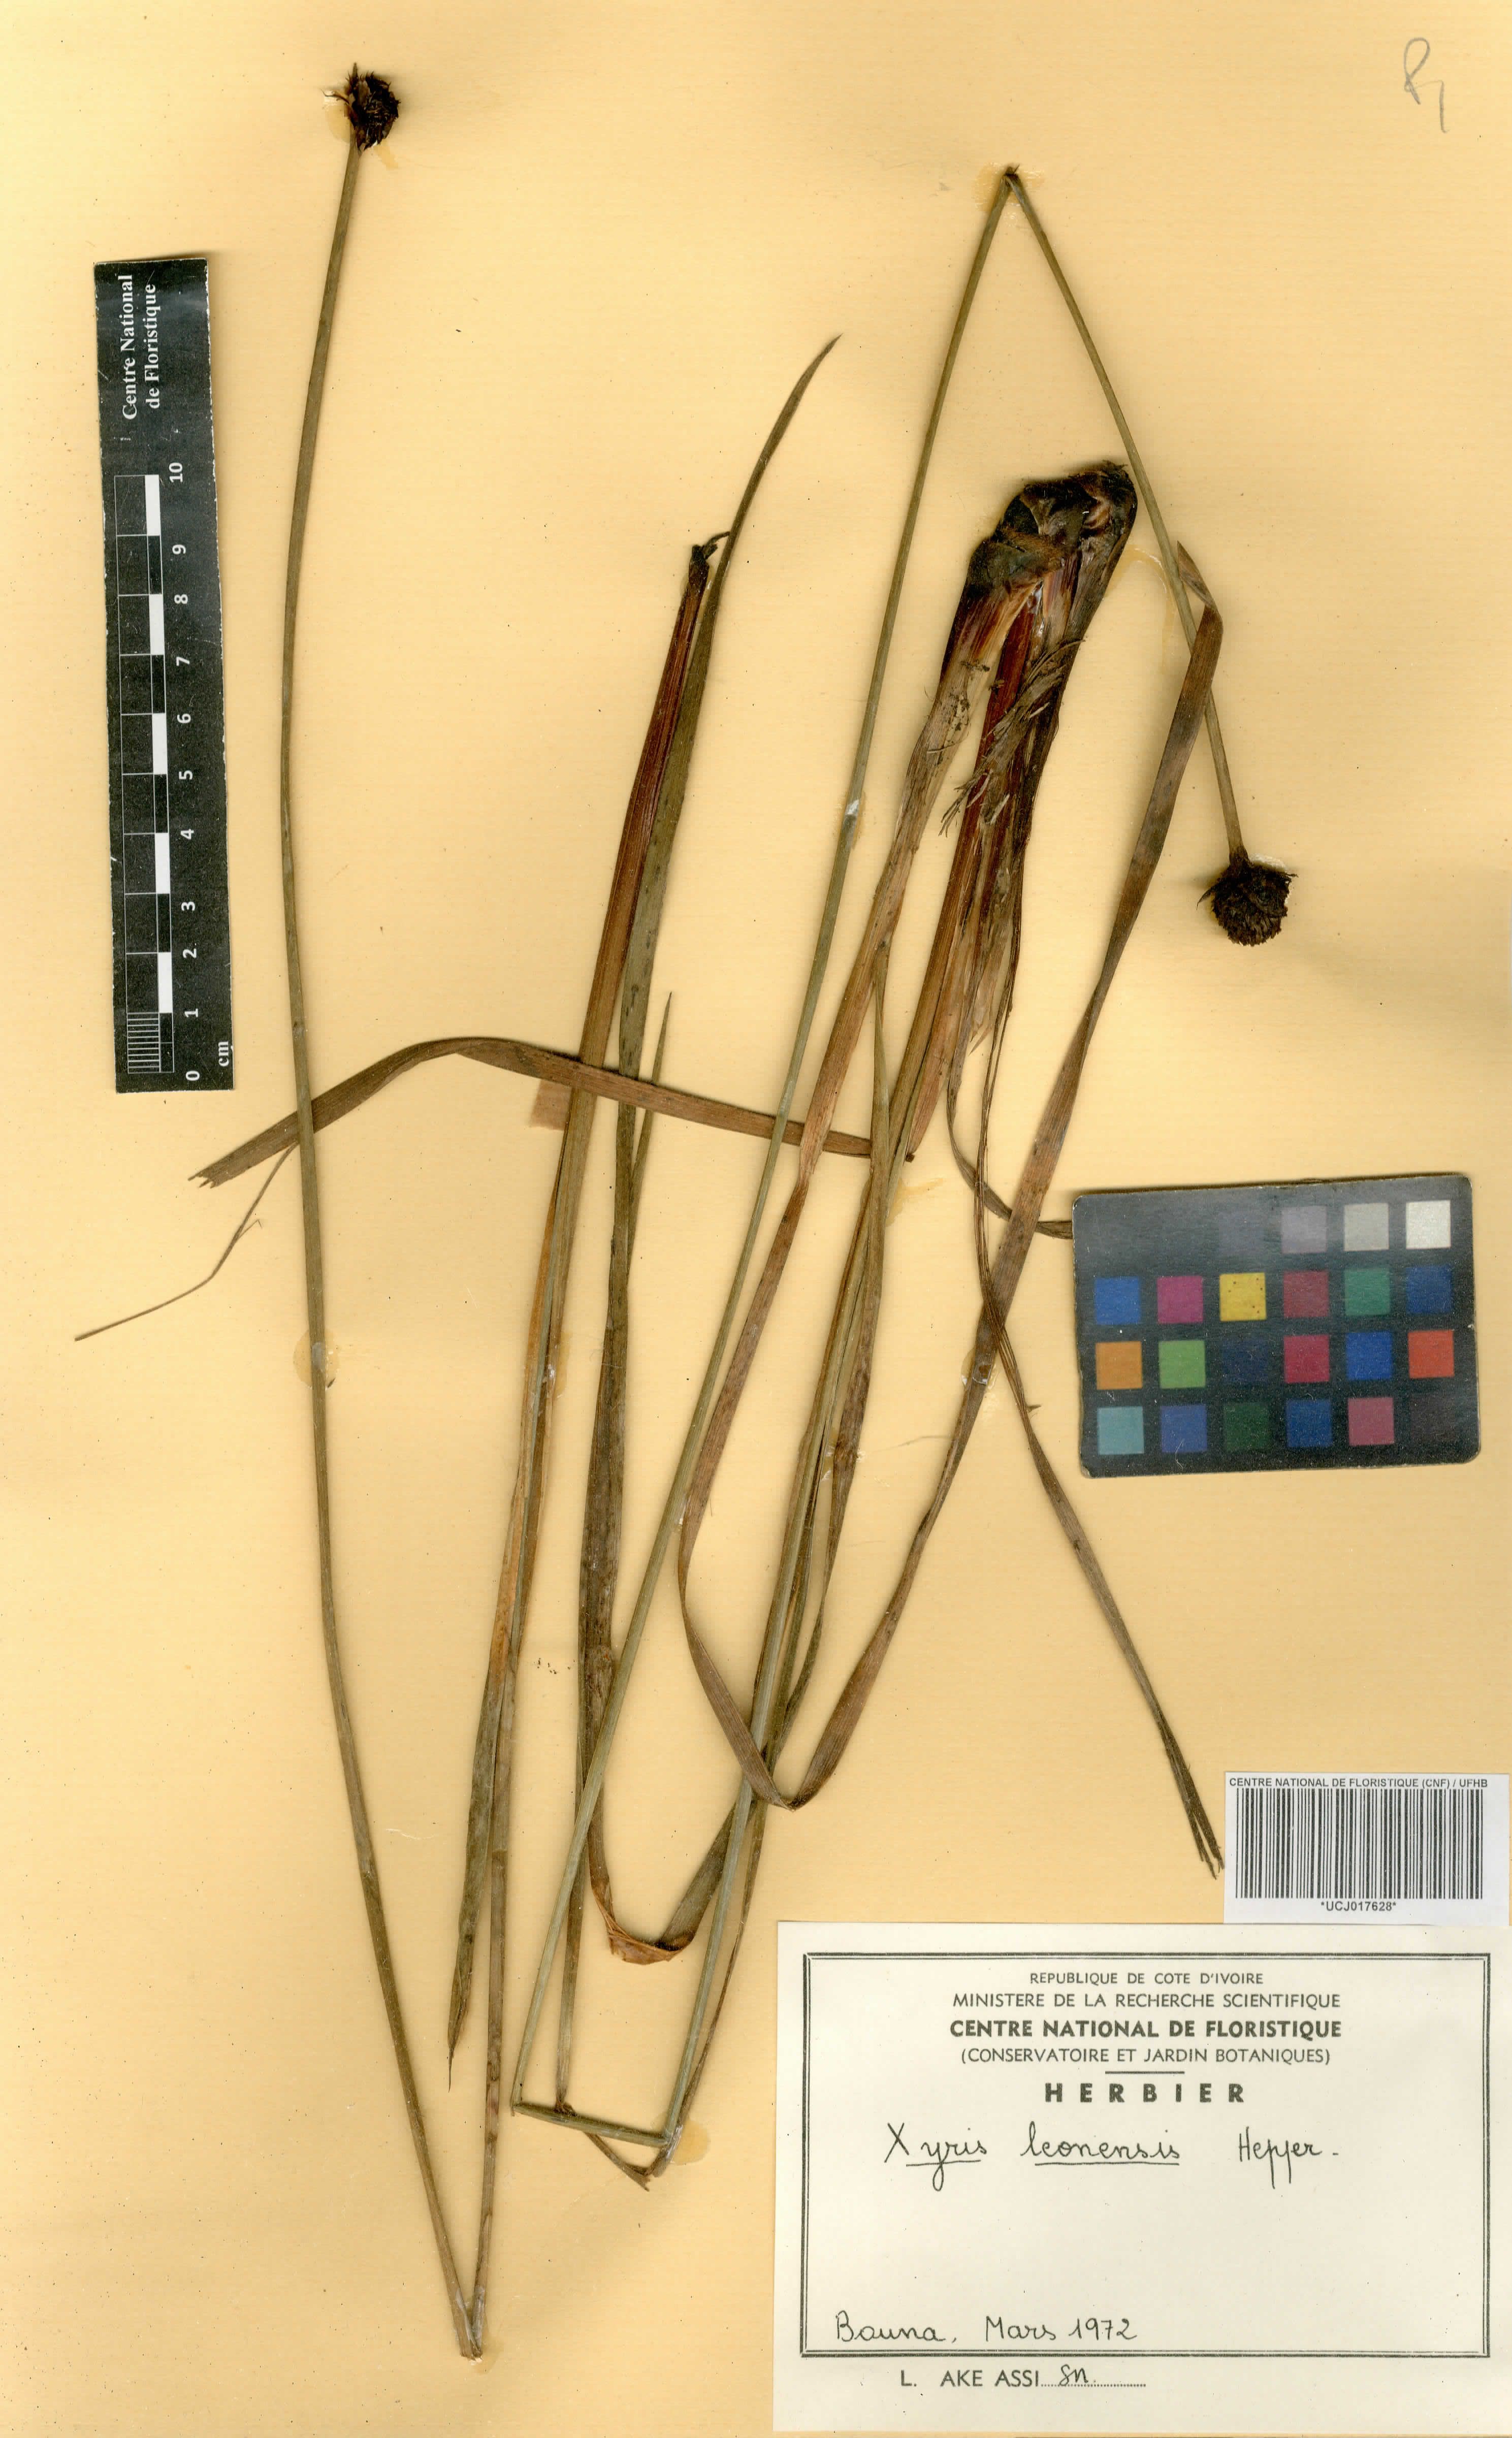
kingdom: Plantae
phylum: Tracheophyta
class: Liliopsida
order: Poales
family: Xyridaceae
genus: Xyris
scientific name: Xyris leonensis
